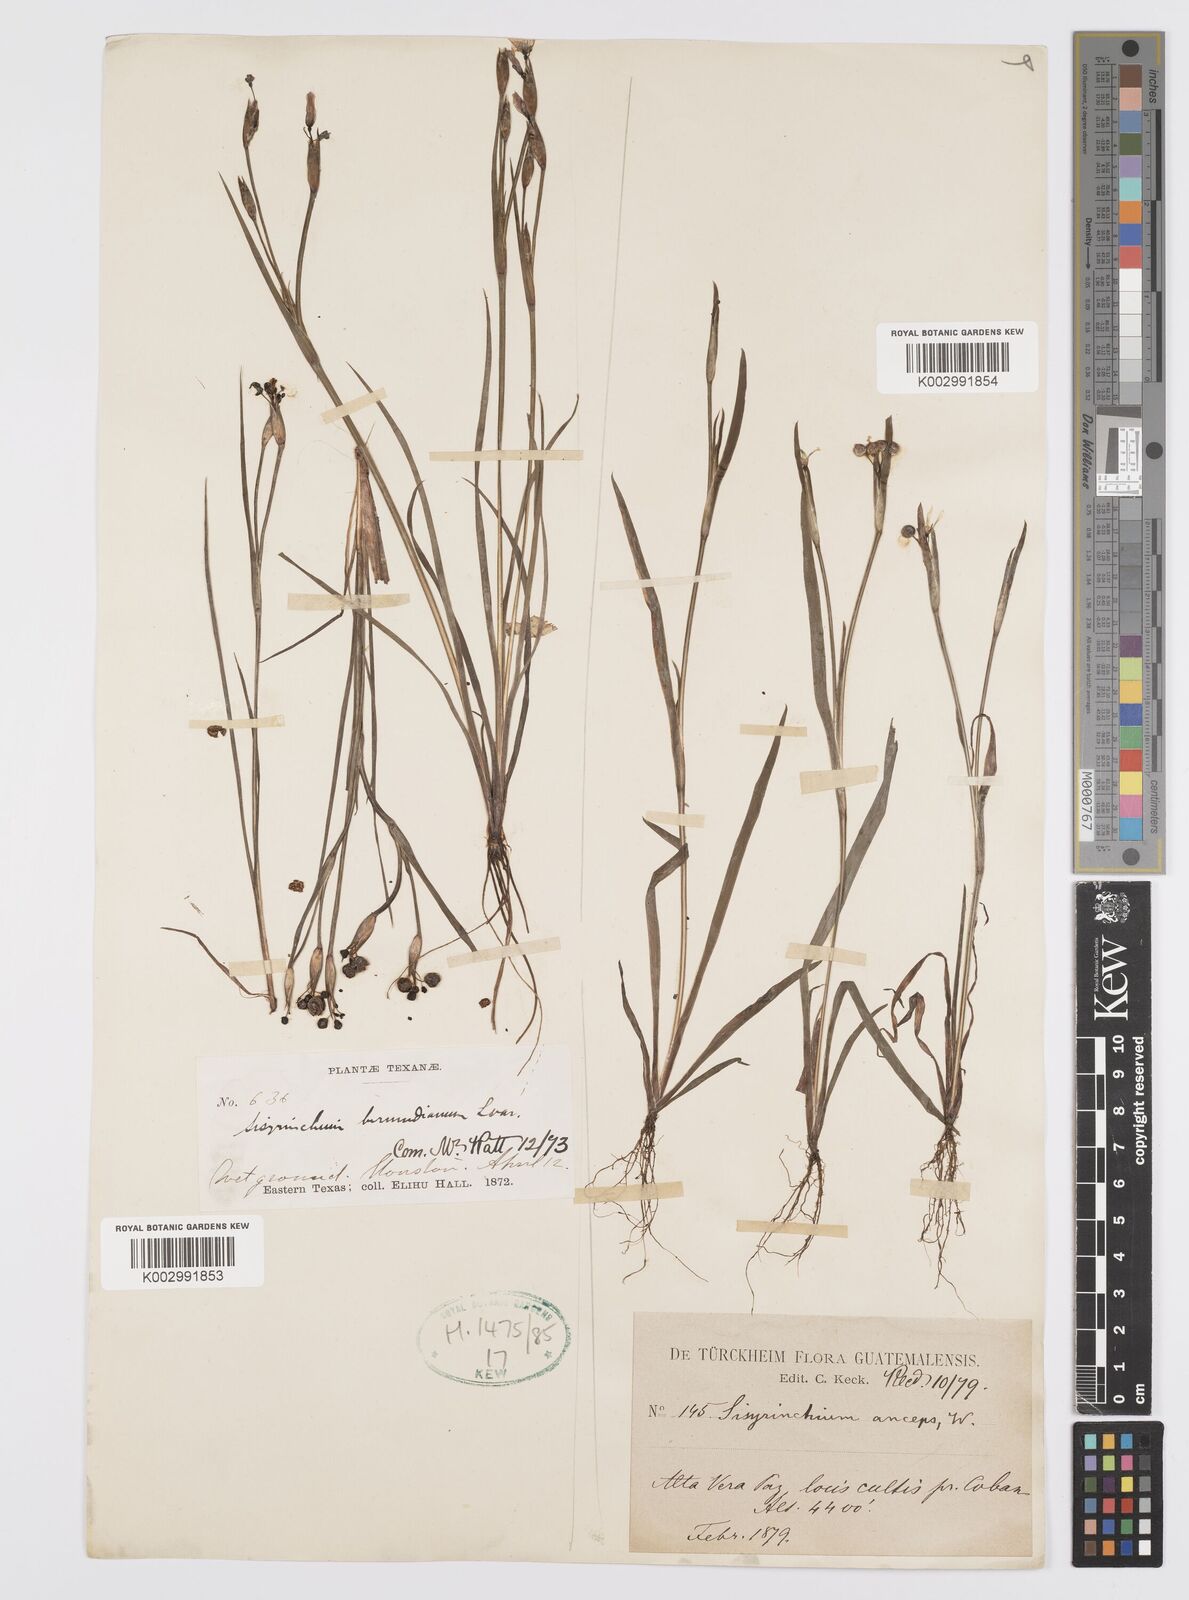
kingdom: Plantae
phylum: Tracheophyta
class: Liliopsida
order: Asparagales
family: Iridaceae
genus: Sisyrinchium
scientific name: Sisyrinchium bermudiana
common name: Blue-eyed-grass
